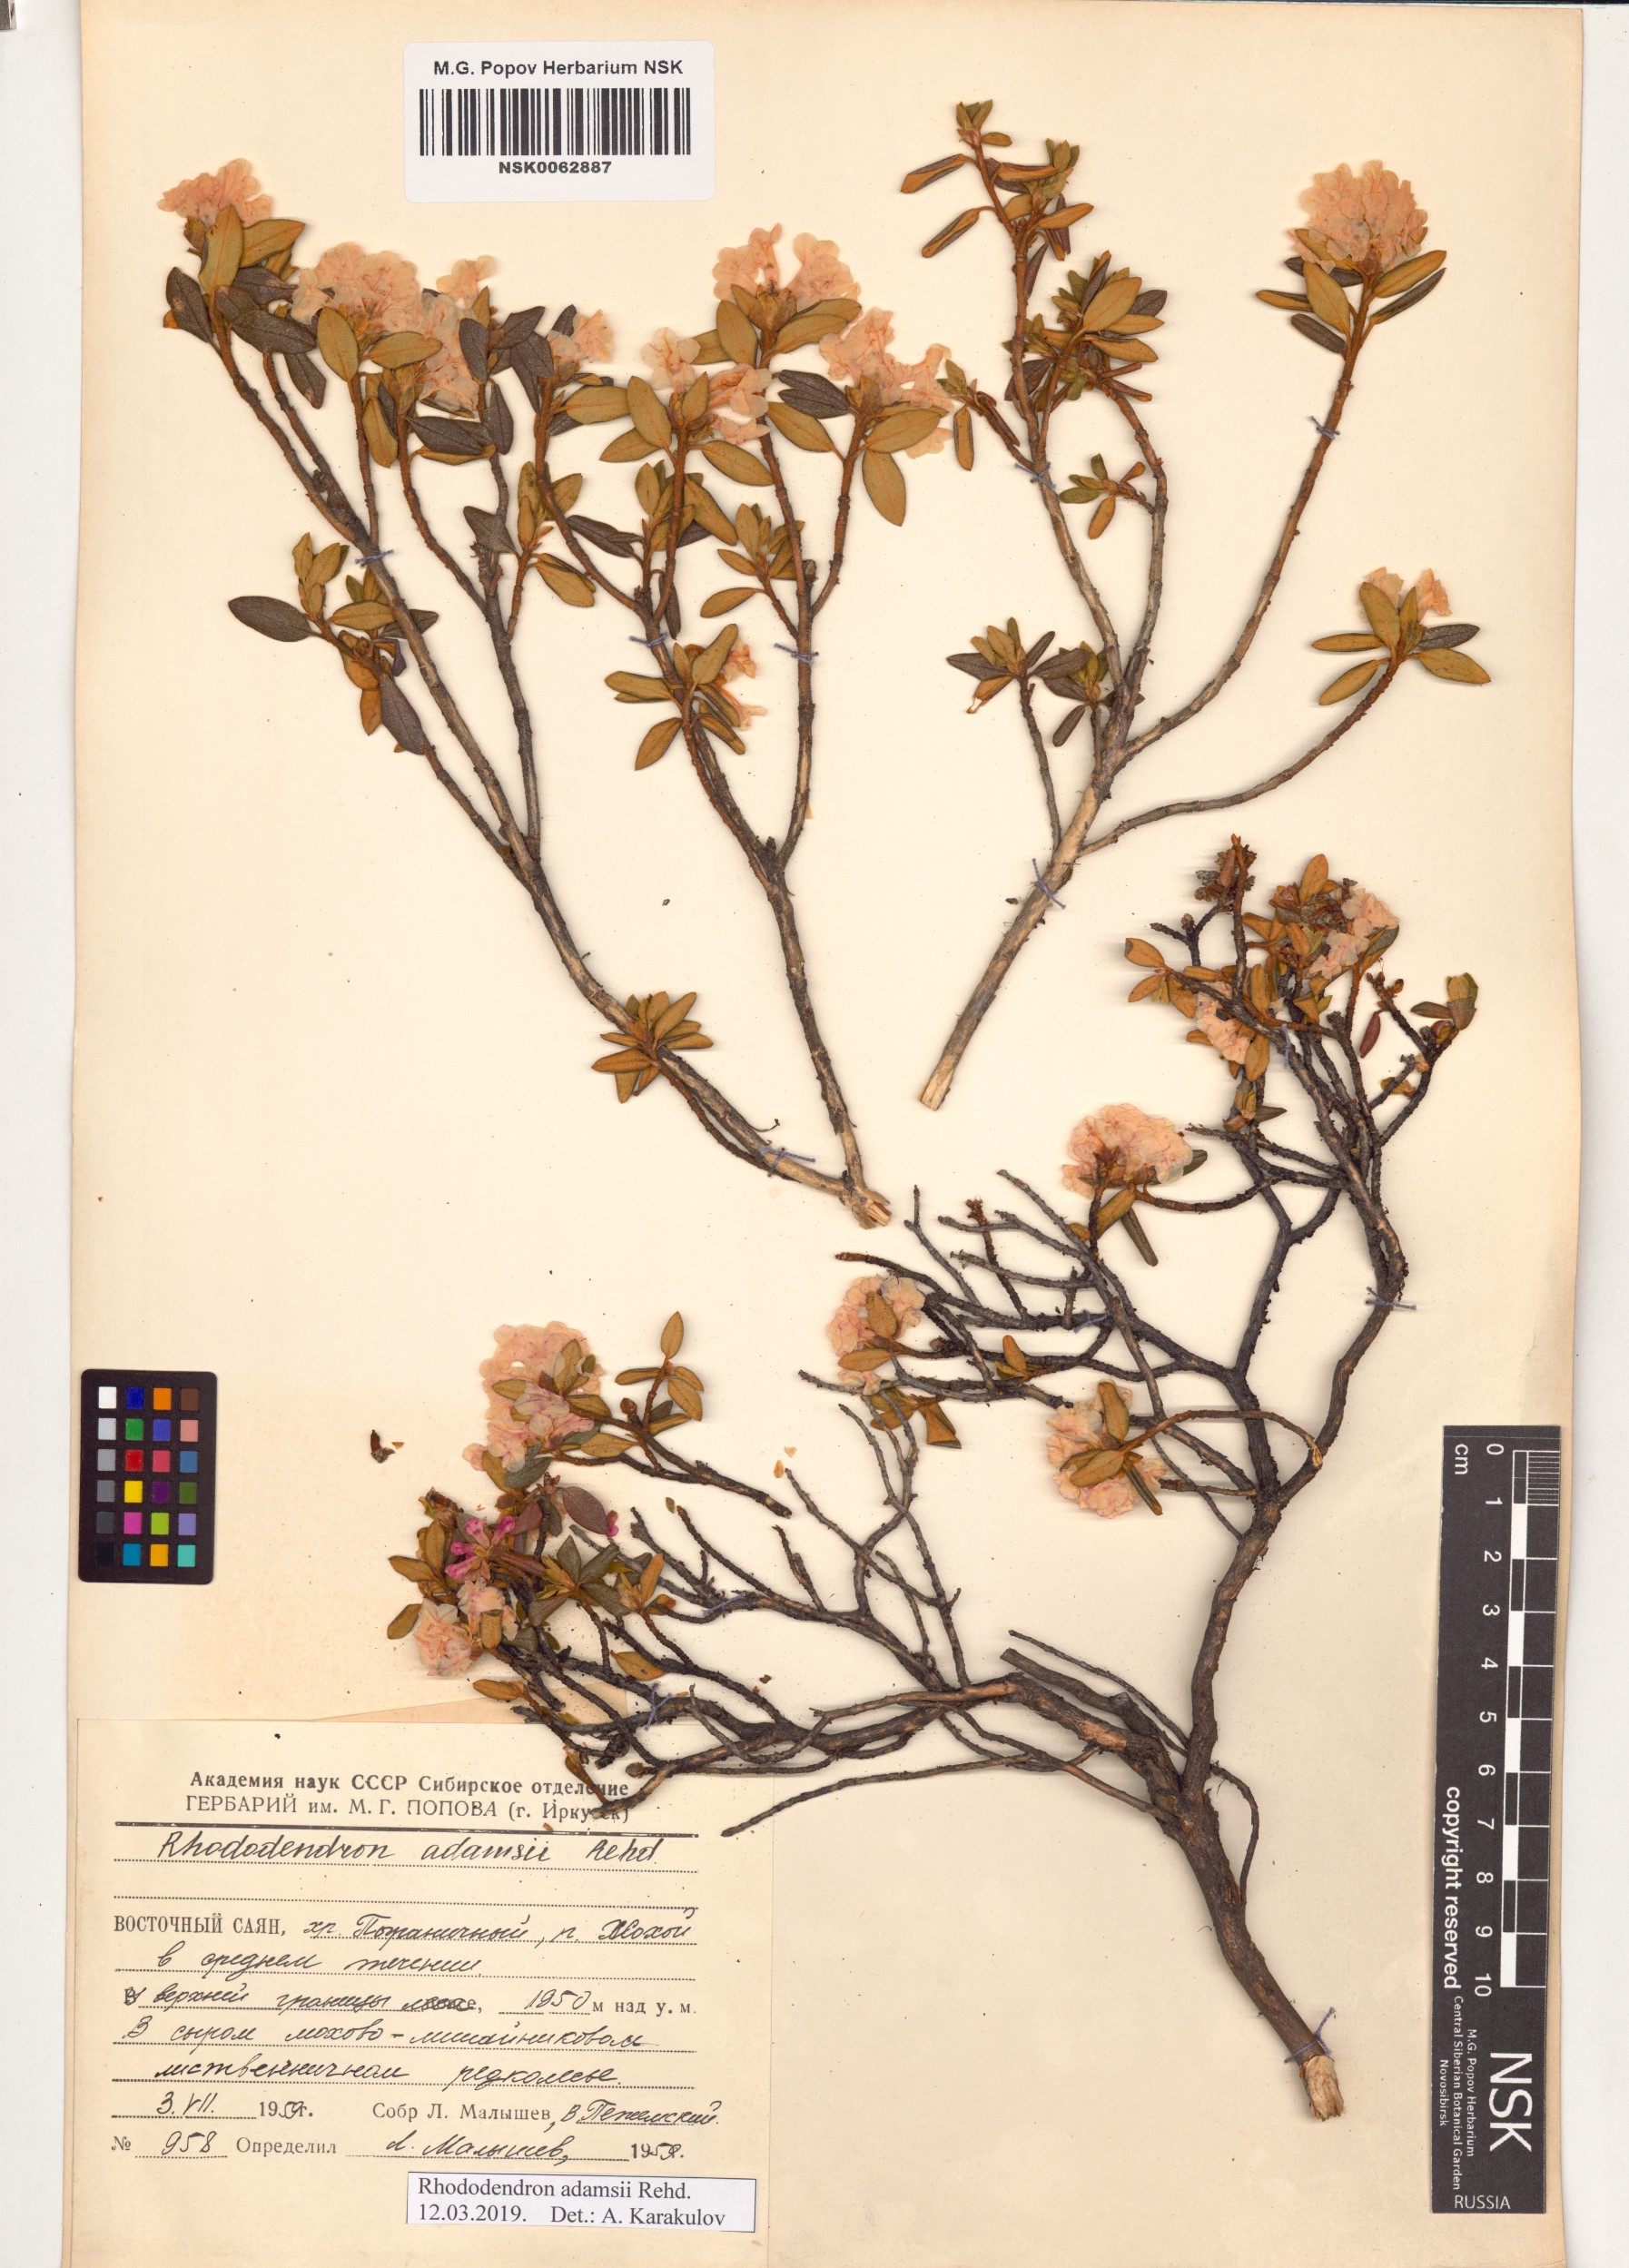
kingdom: Plantae
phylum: Tracheophyta
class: Magnoliopsida
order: Ericales
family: Ericaceae
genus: Rhododendron
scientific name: Rhododendron adamsii
